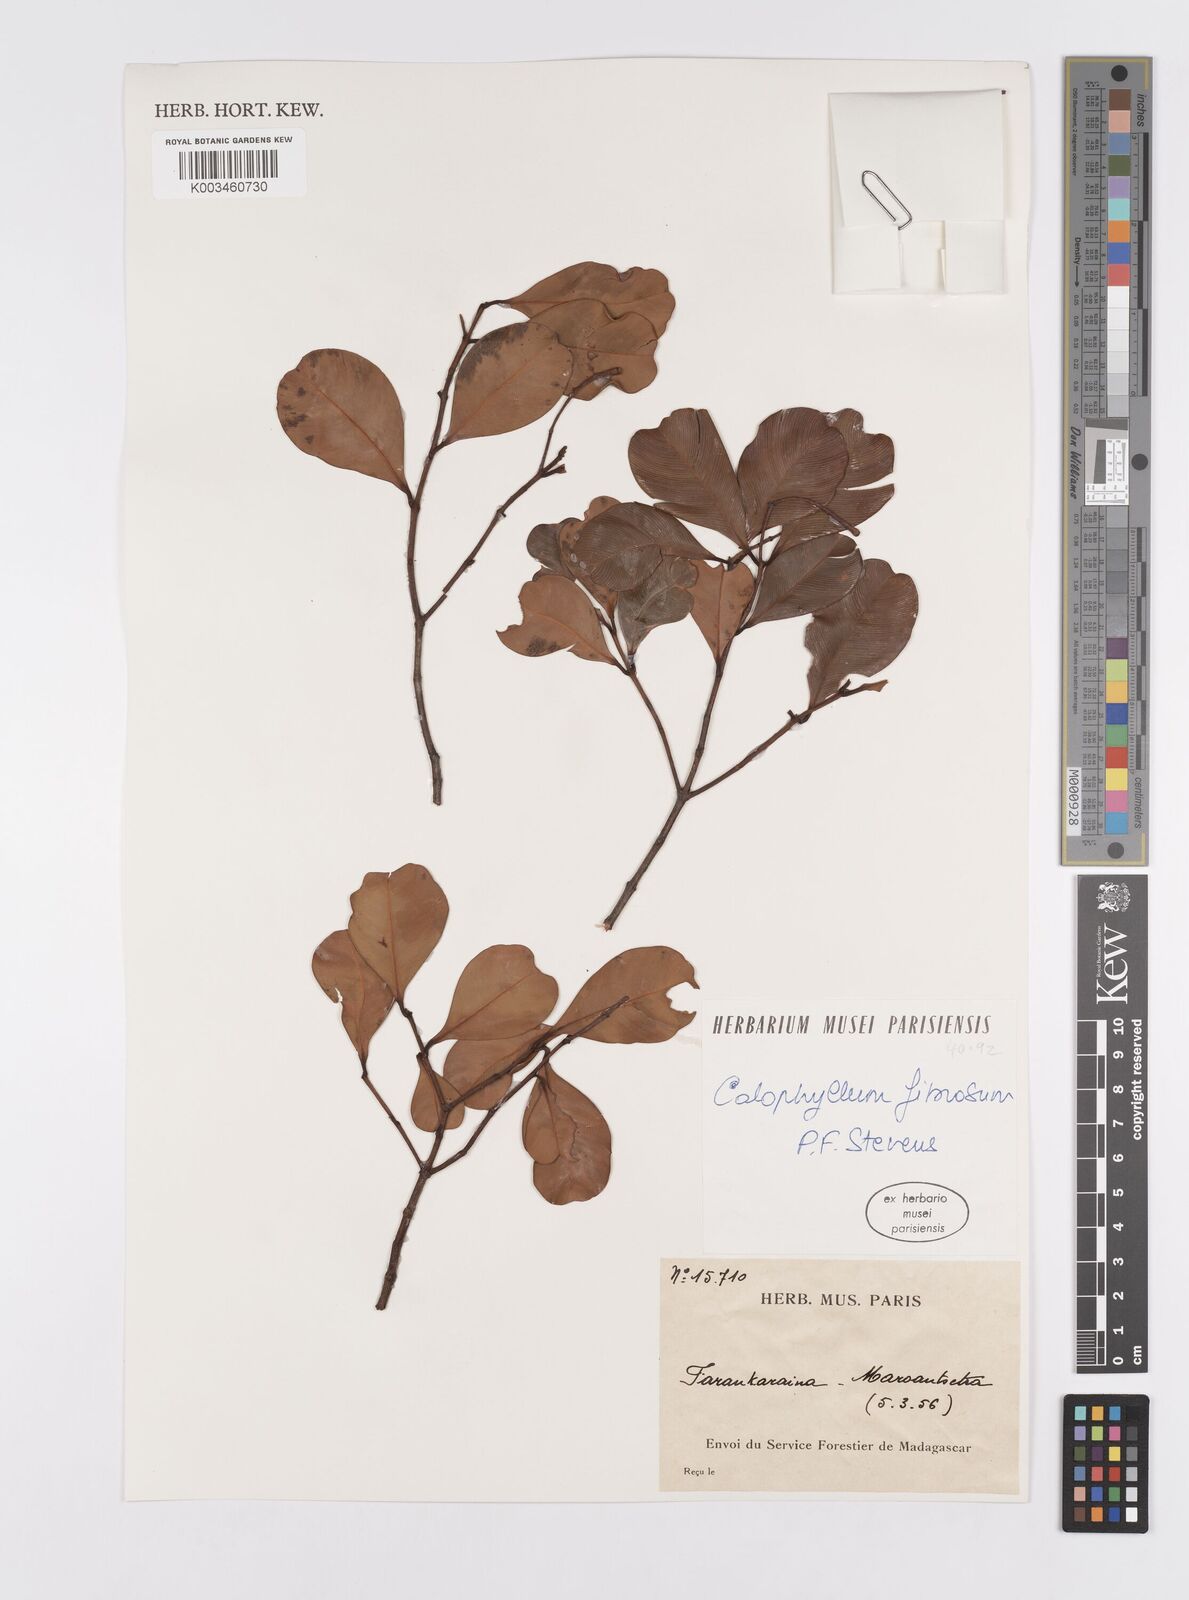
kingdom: Plantae
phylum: Tracheophyta
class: Magnoliopsida
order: Malpighiales
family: Calophyllaceae
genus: Calophyllum
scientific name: Calophyllum fibrosum
